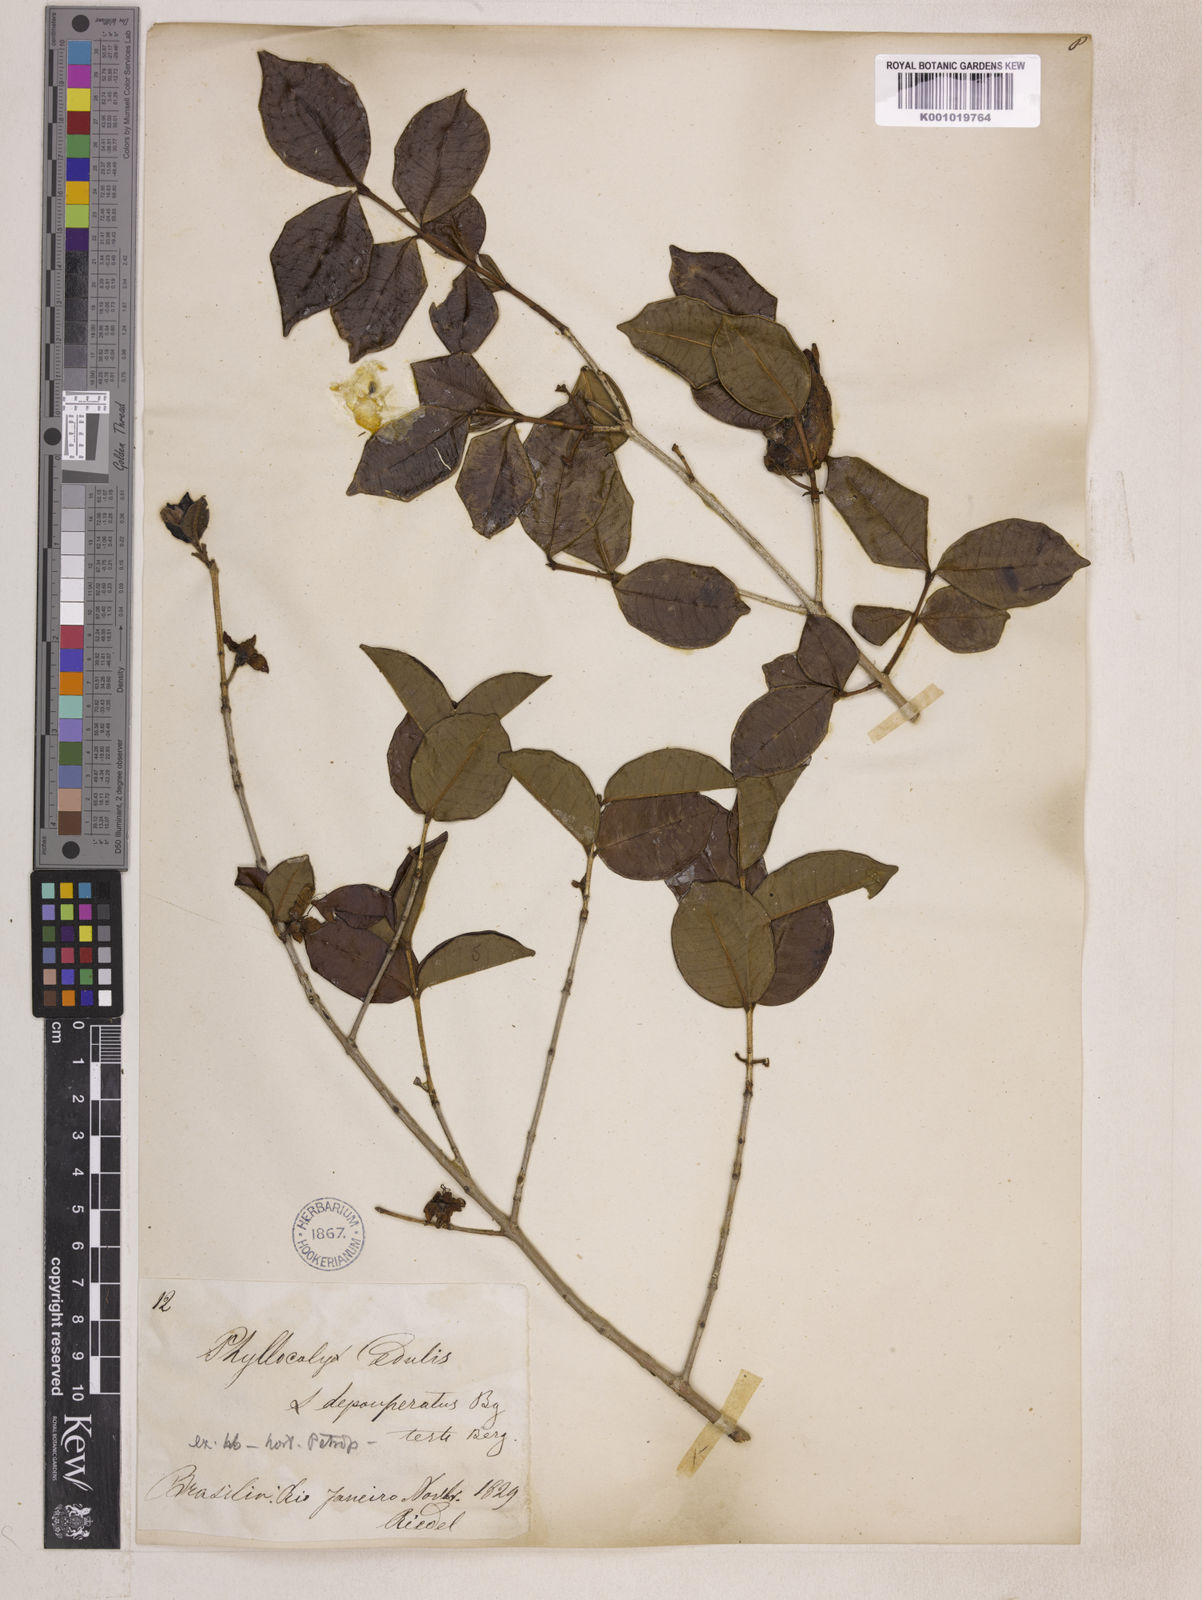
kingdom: Plantae
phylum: Tracheophyta
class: Magnoliopsida
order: Myrtales
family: Myrtaceae
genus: Eugenia
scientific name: Eugenia selloi
